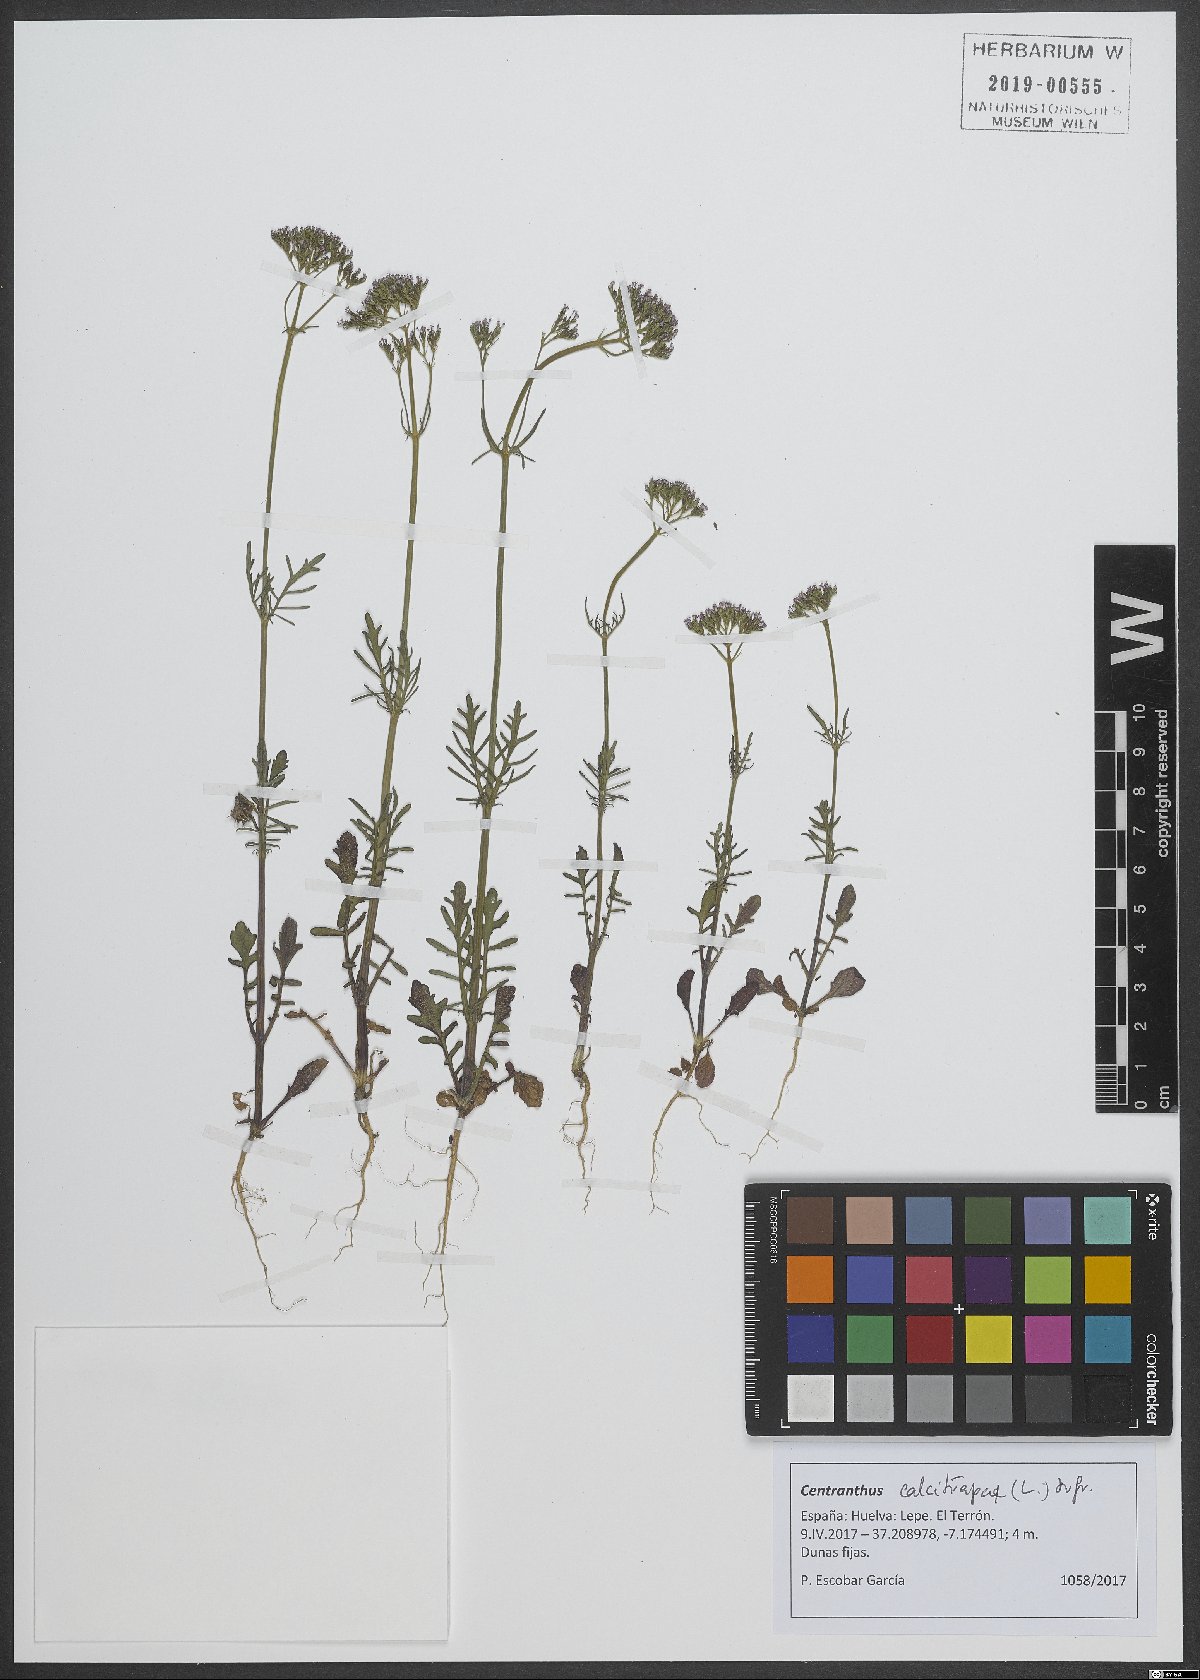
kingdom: Plantae
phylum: Tracheophyta
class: Magnoliopsida
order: Dipsacales
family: Caprifoliaceae
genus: Centranthus
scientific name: Centranthus calcitrapae
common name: Annual valerian
